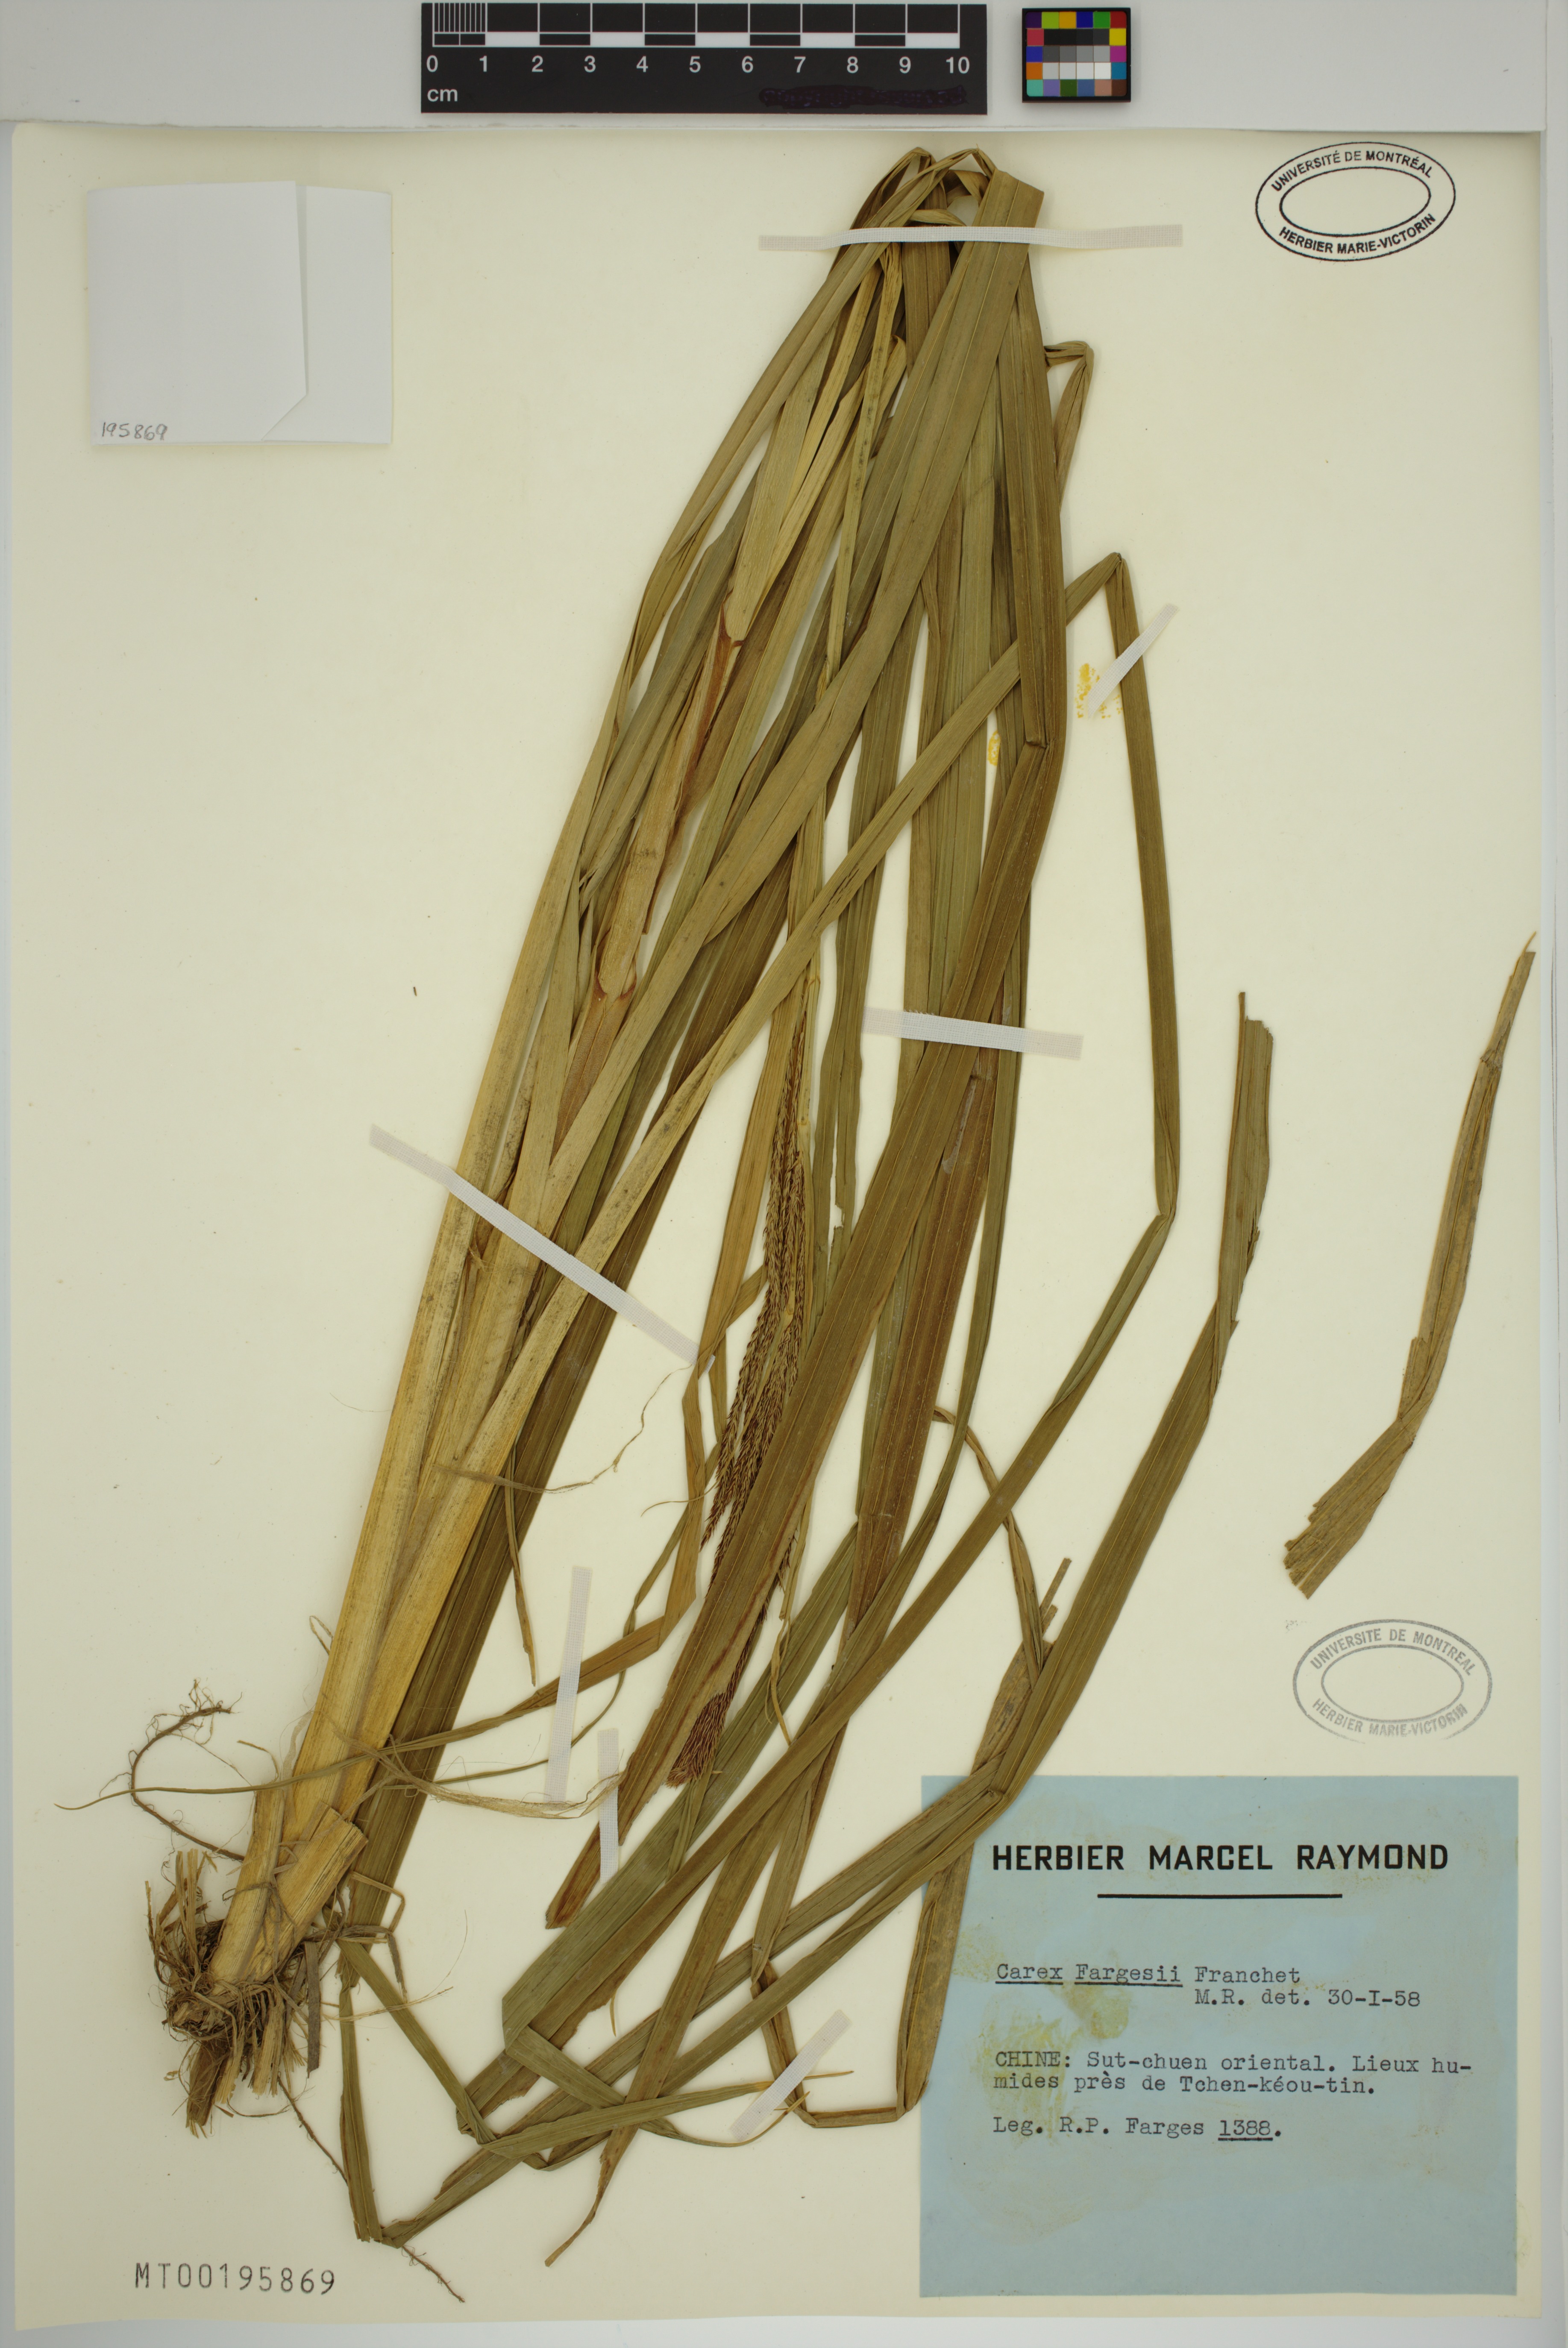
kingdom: Plantae
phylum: Tracheophyta
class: Liliopsida
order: Poales
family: Cyperaceae
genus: Carex
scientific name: Carex fargesii
